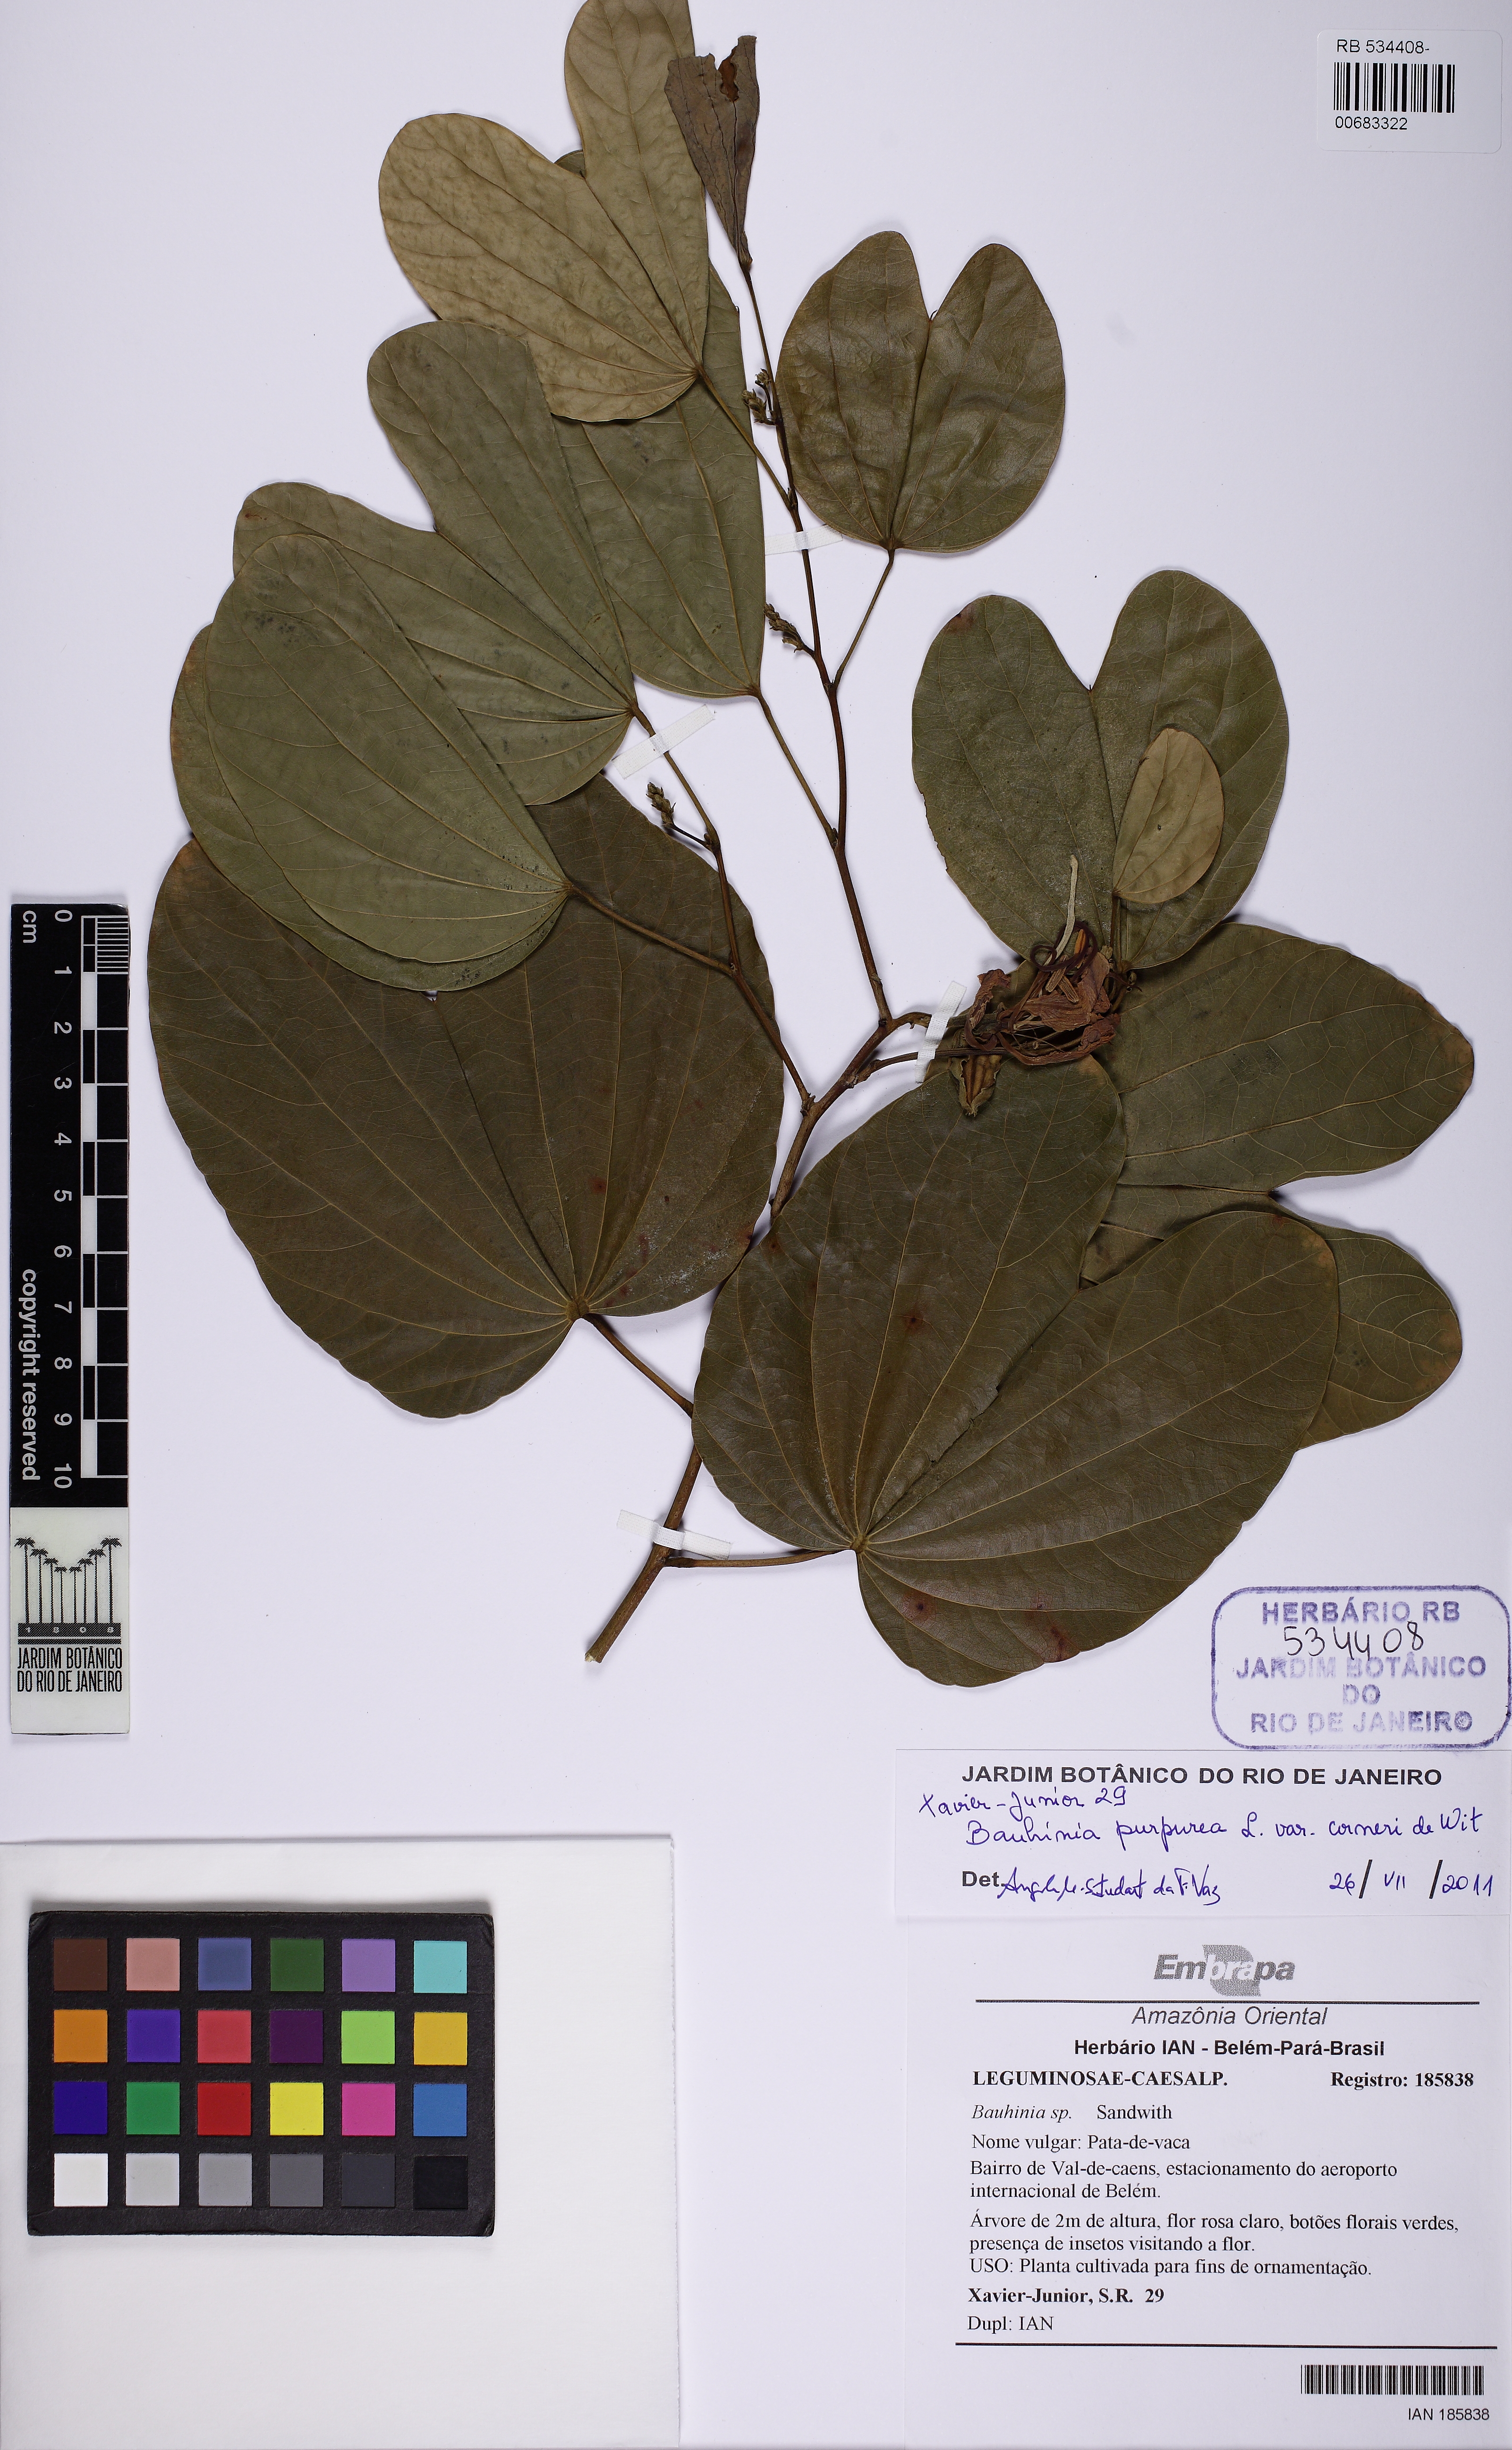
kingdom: Plantae
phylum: Tracheophyta
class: Magnoliopsida
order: Fabales
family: Fabaceae
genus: Bauhinia
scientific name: Bauhinia purpurea
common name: Butterfly-tree
